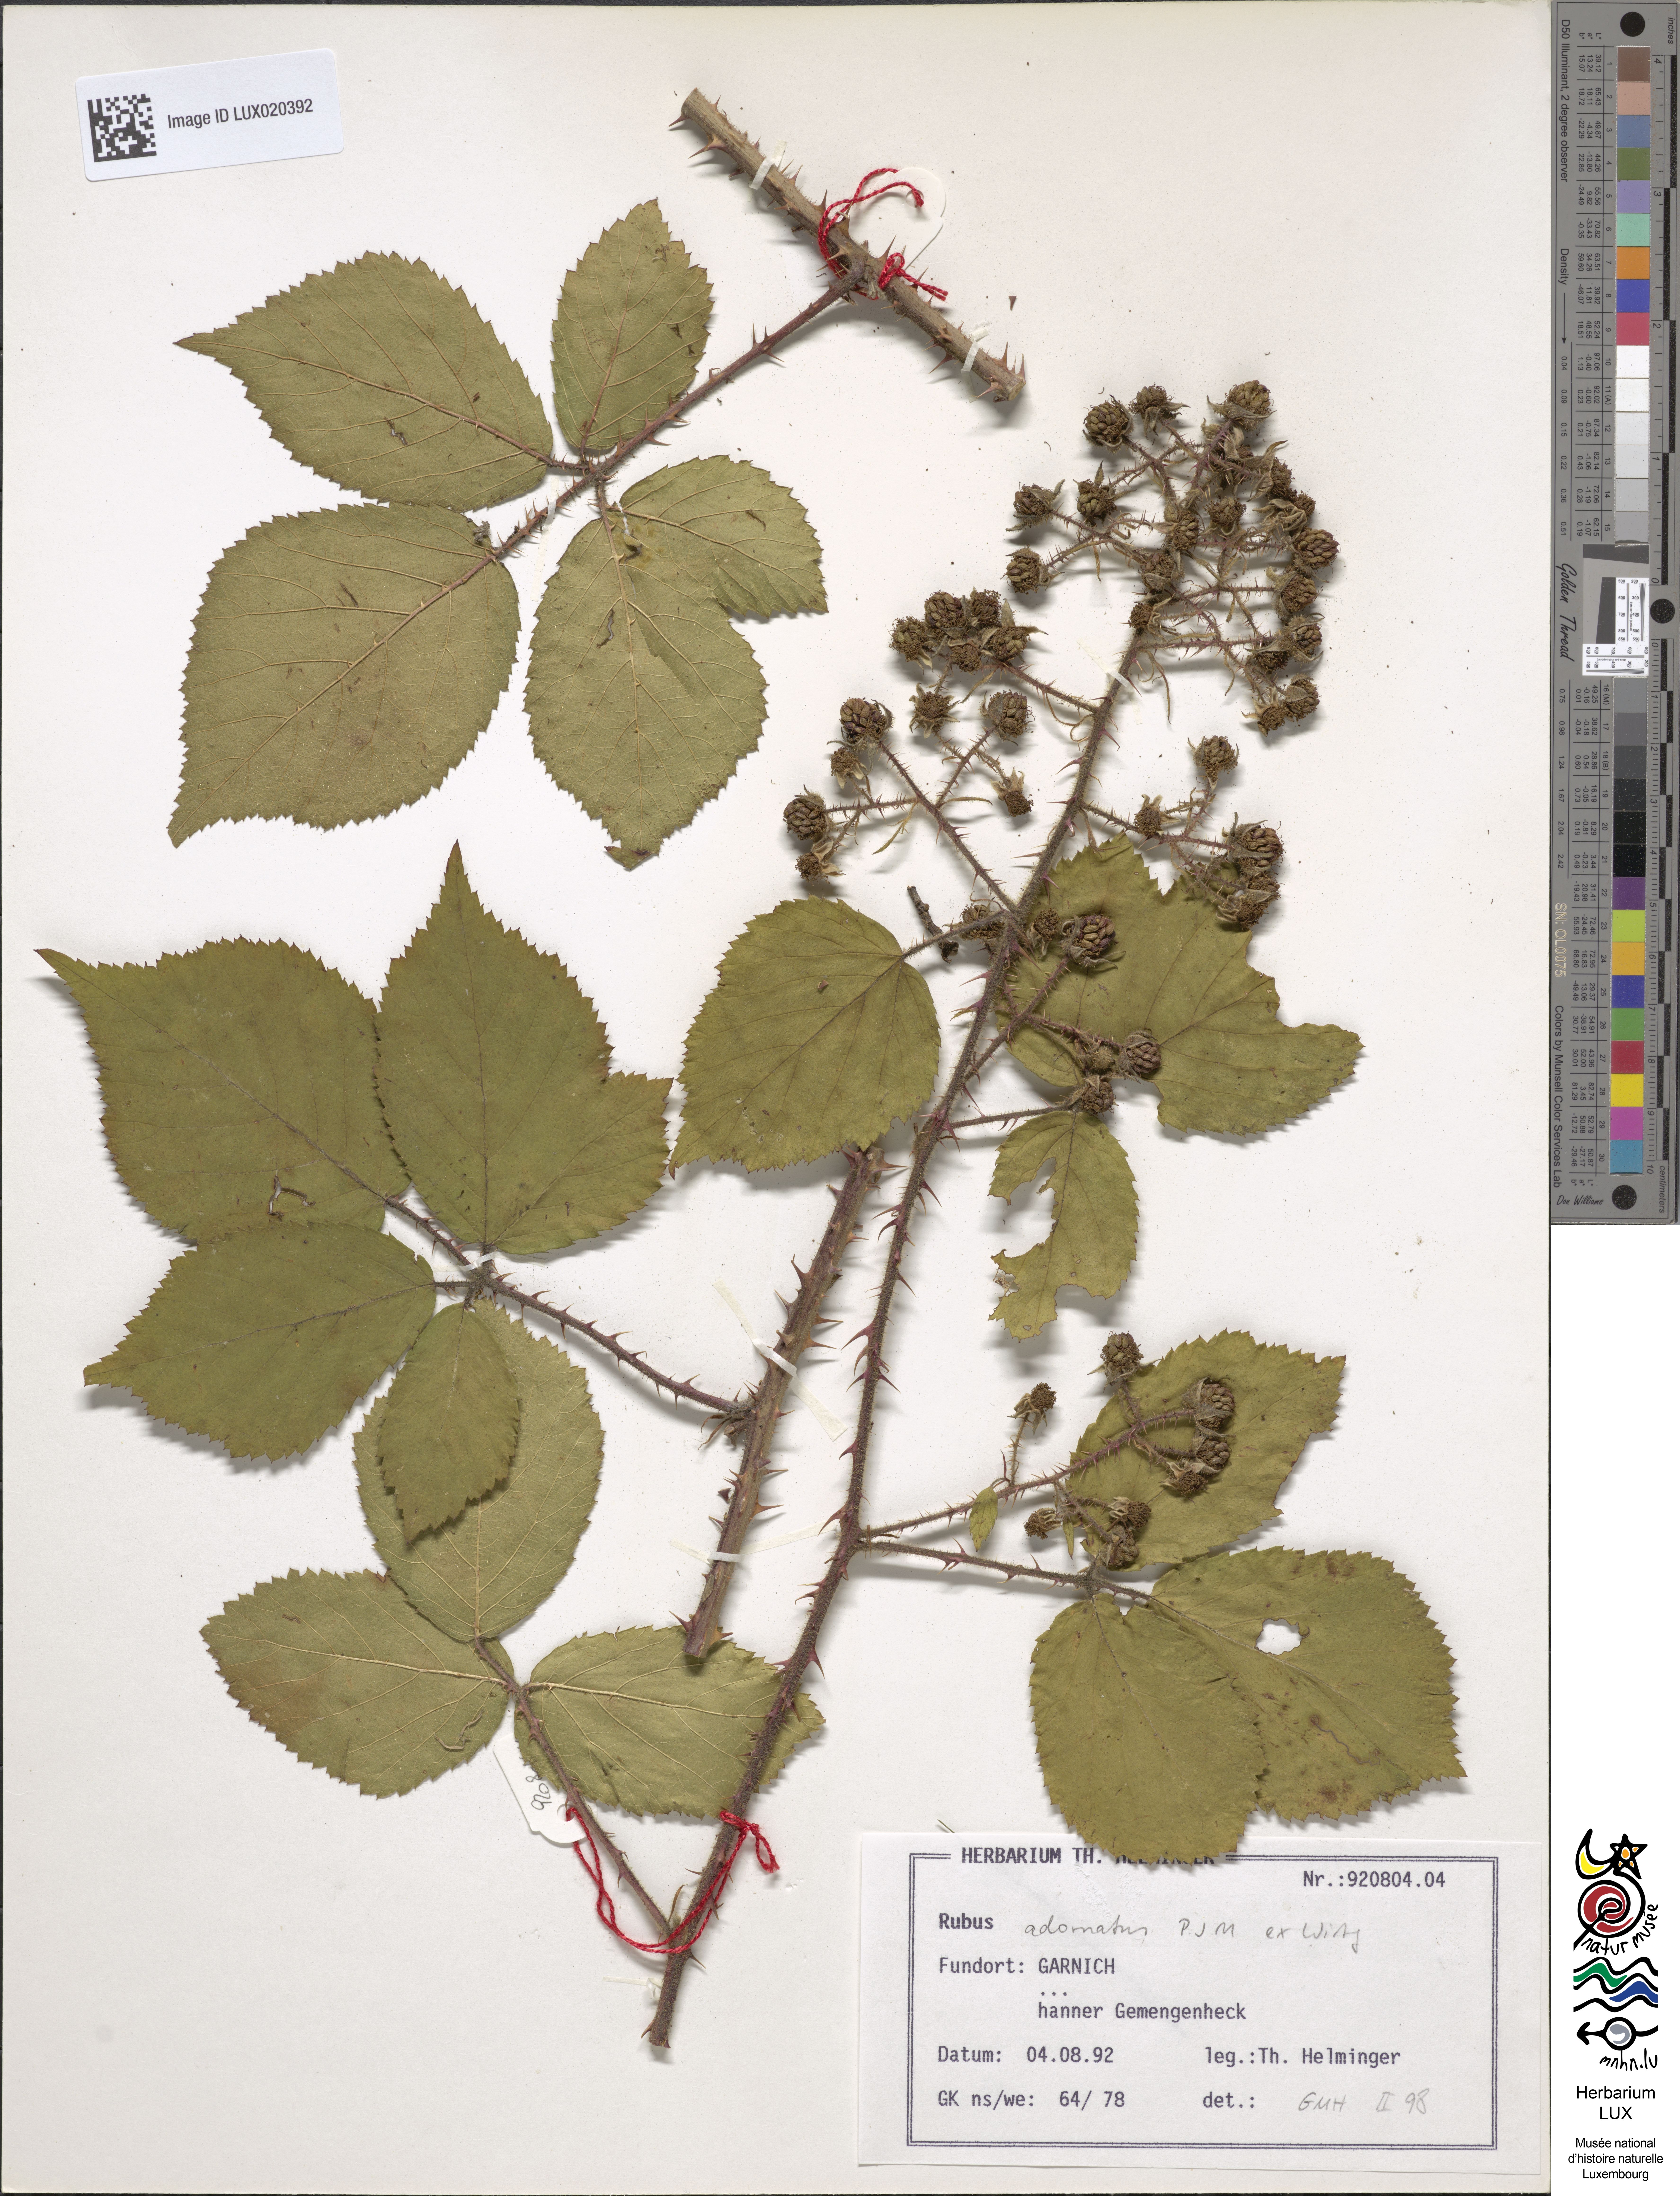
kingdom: Plantae
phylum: Tracheophyta
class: Magnoliopsida
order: Rosales
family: Rosaceae
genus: Rubus
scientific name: Rubus
